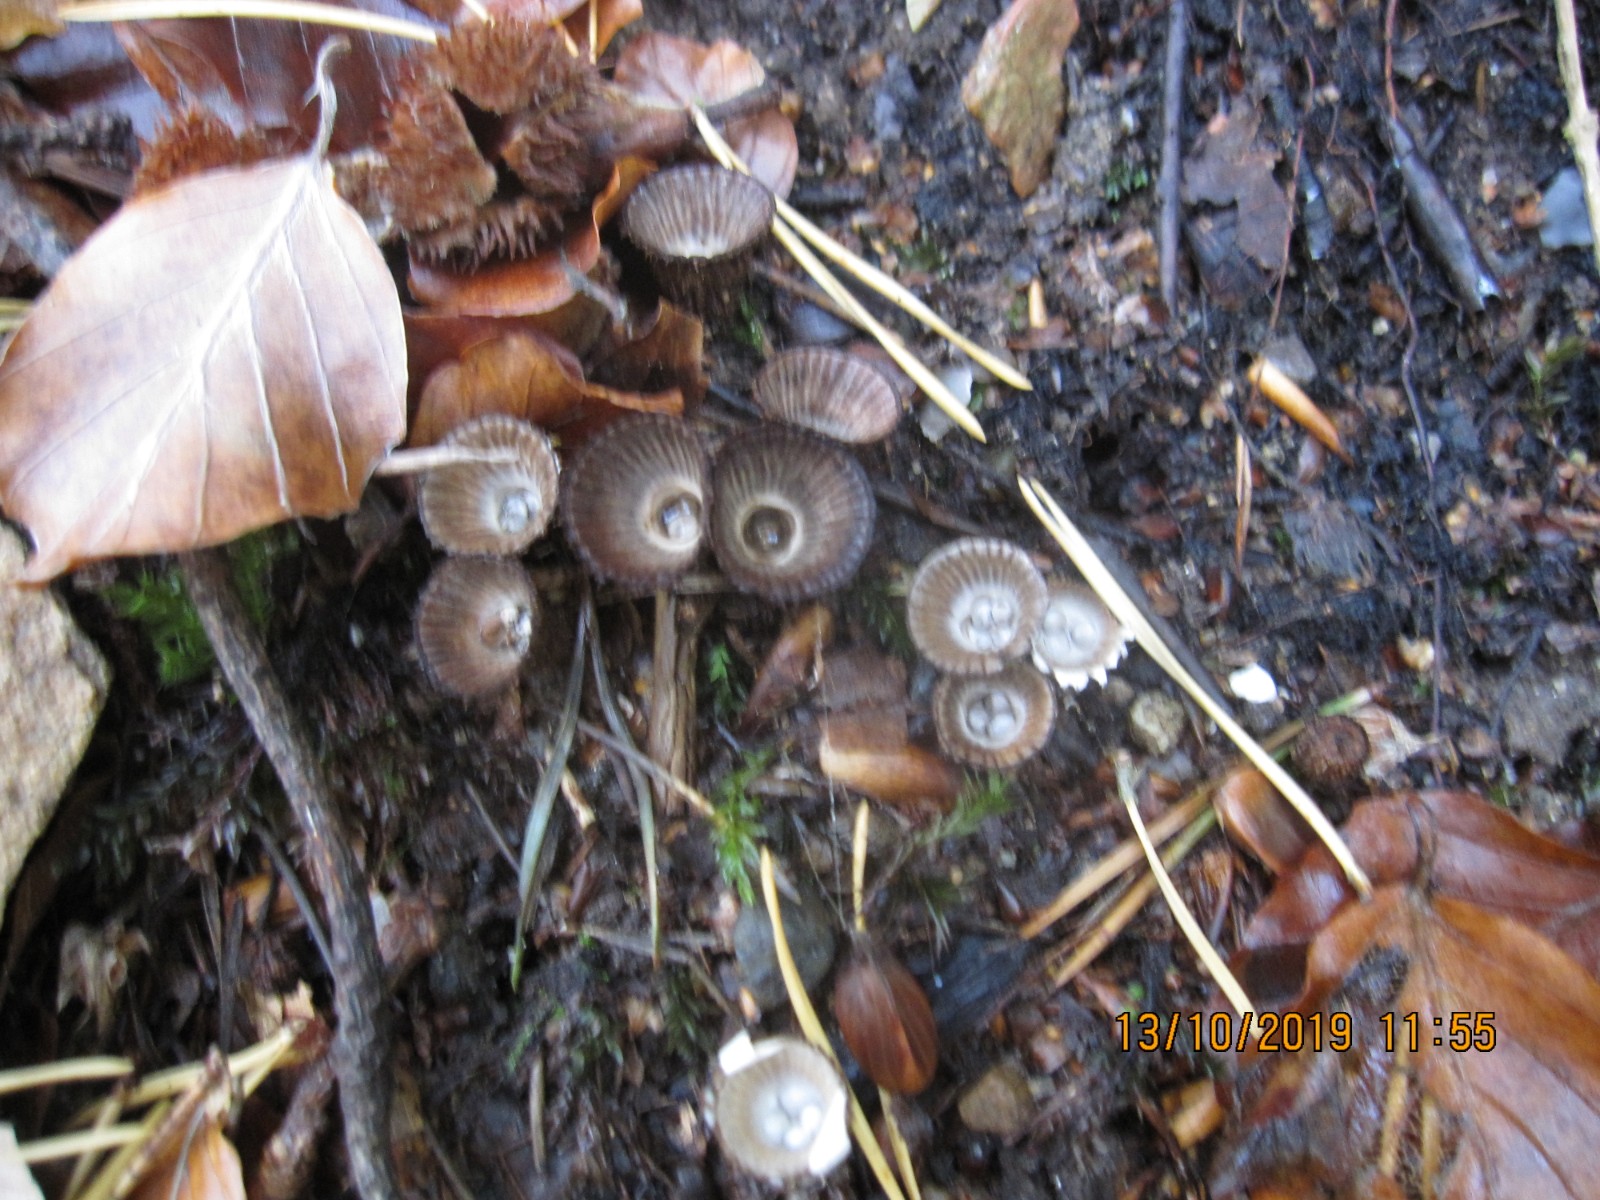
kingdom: Fungi
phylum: Basidiomycota
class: Agaricomycetes
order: Agaricales
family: Agaricaceae
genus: Cyathus
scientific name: Cyathus striatus
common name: stribet redesvamp
